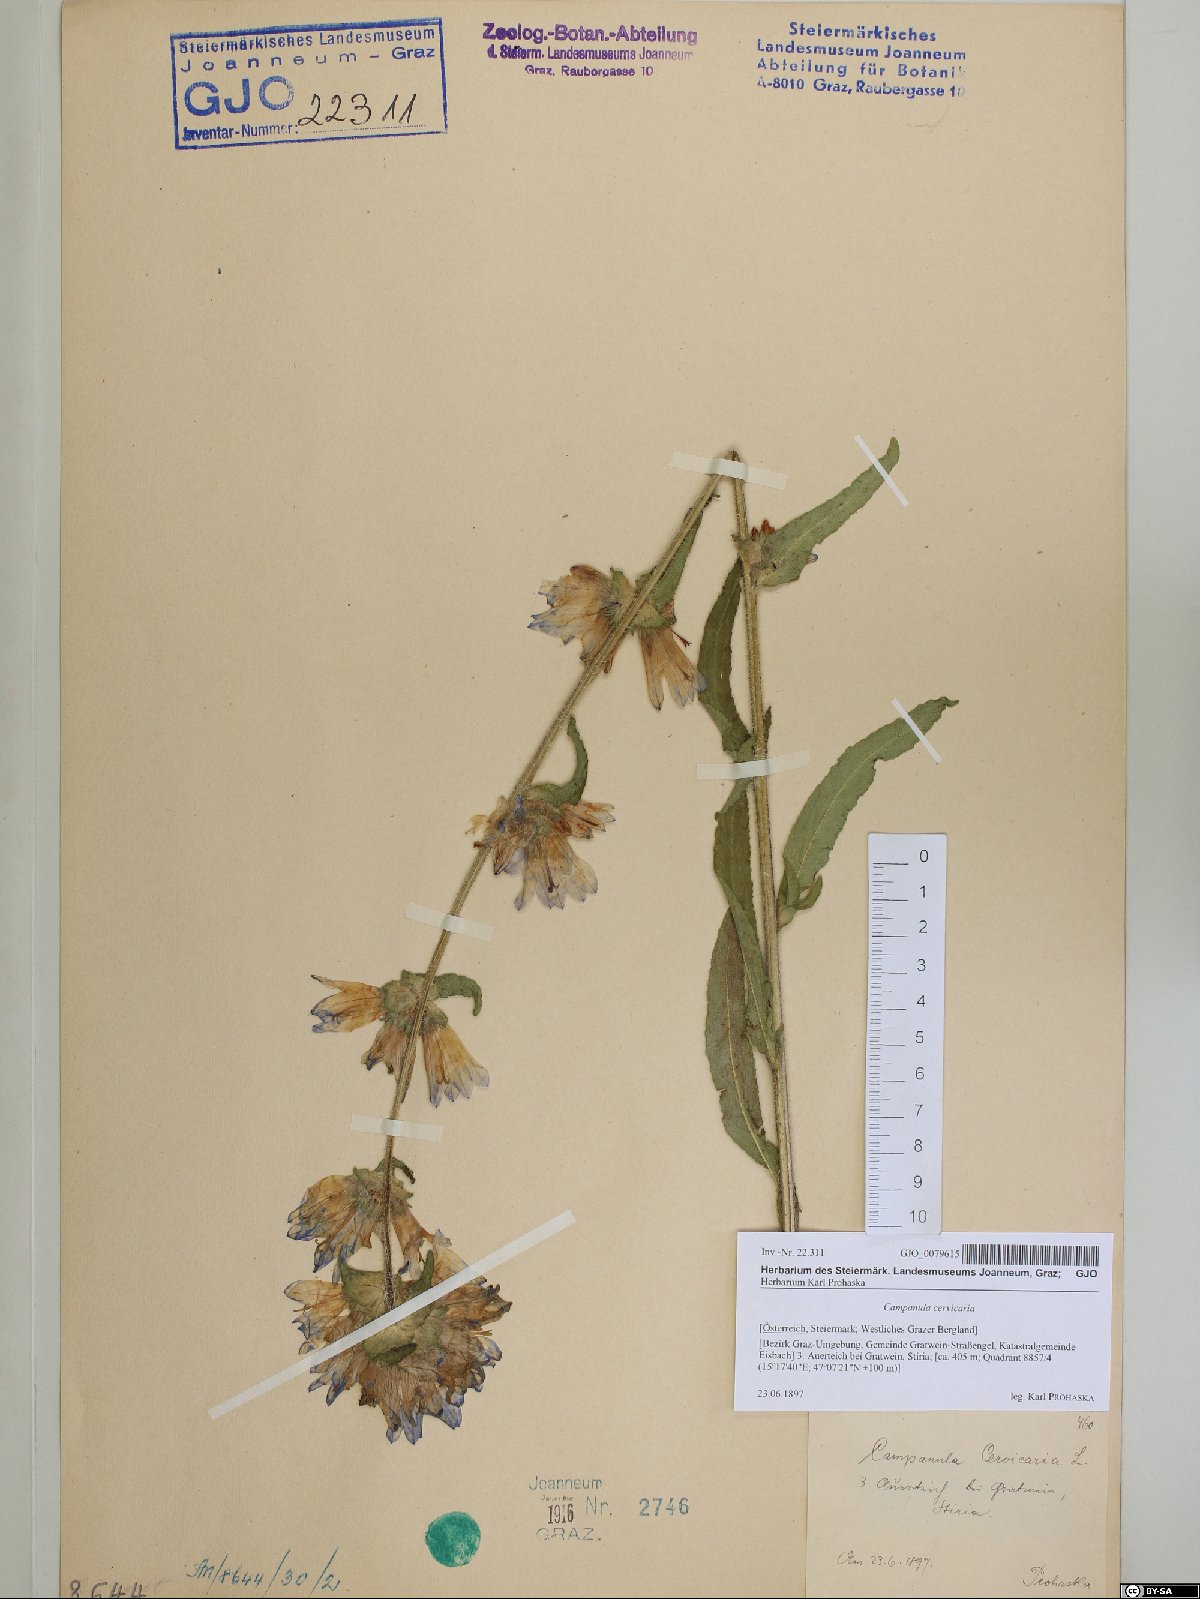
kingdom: Plantae
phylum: Tracheophyta
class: Magnoliopsida
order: Asterales
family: Campanulaceae
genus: Campanula
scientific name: Campanula cervicaria
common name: Bristly bellflower
